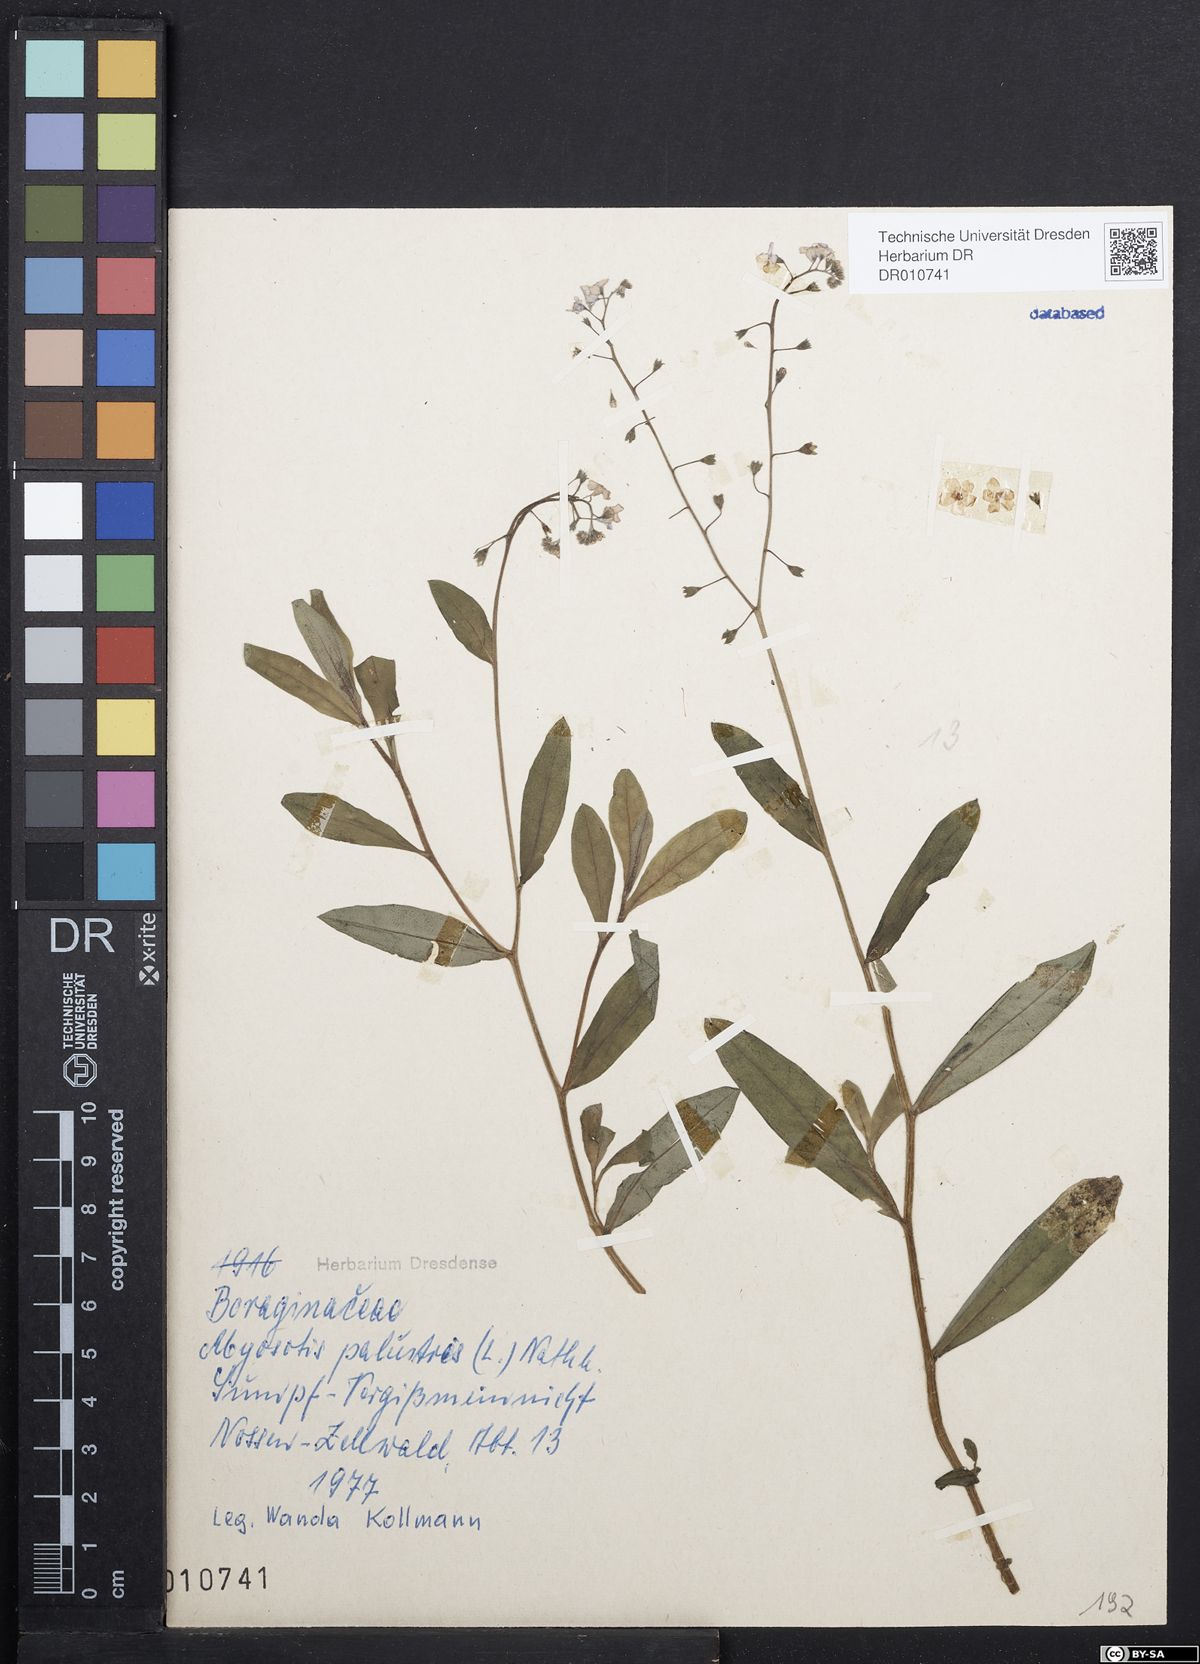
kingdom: Plantae
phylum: Tracheophyta
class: Magnoliopsida
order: Boraginales
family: Boraginaceae
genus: Myosotis
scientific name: Myosotis scorpioides
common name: Water forget-me-not
